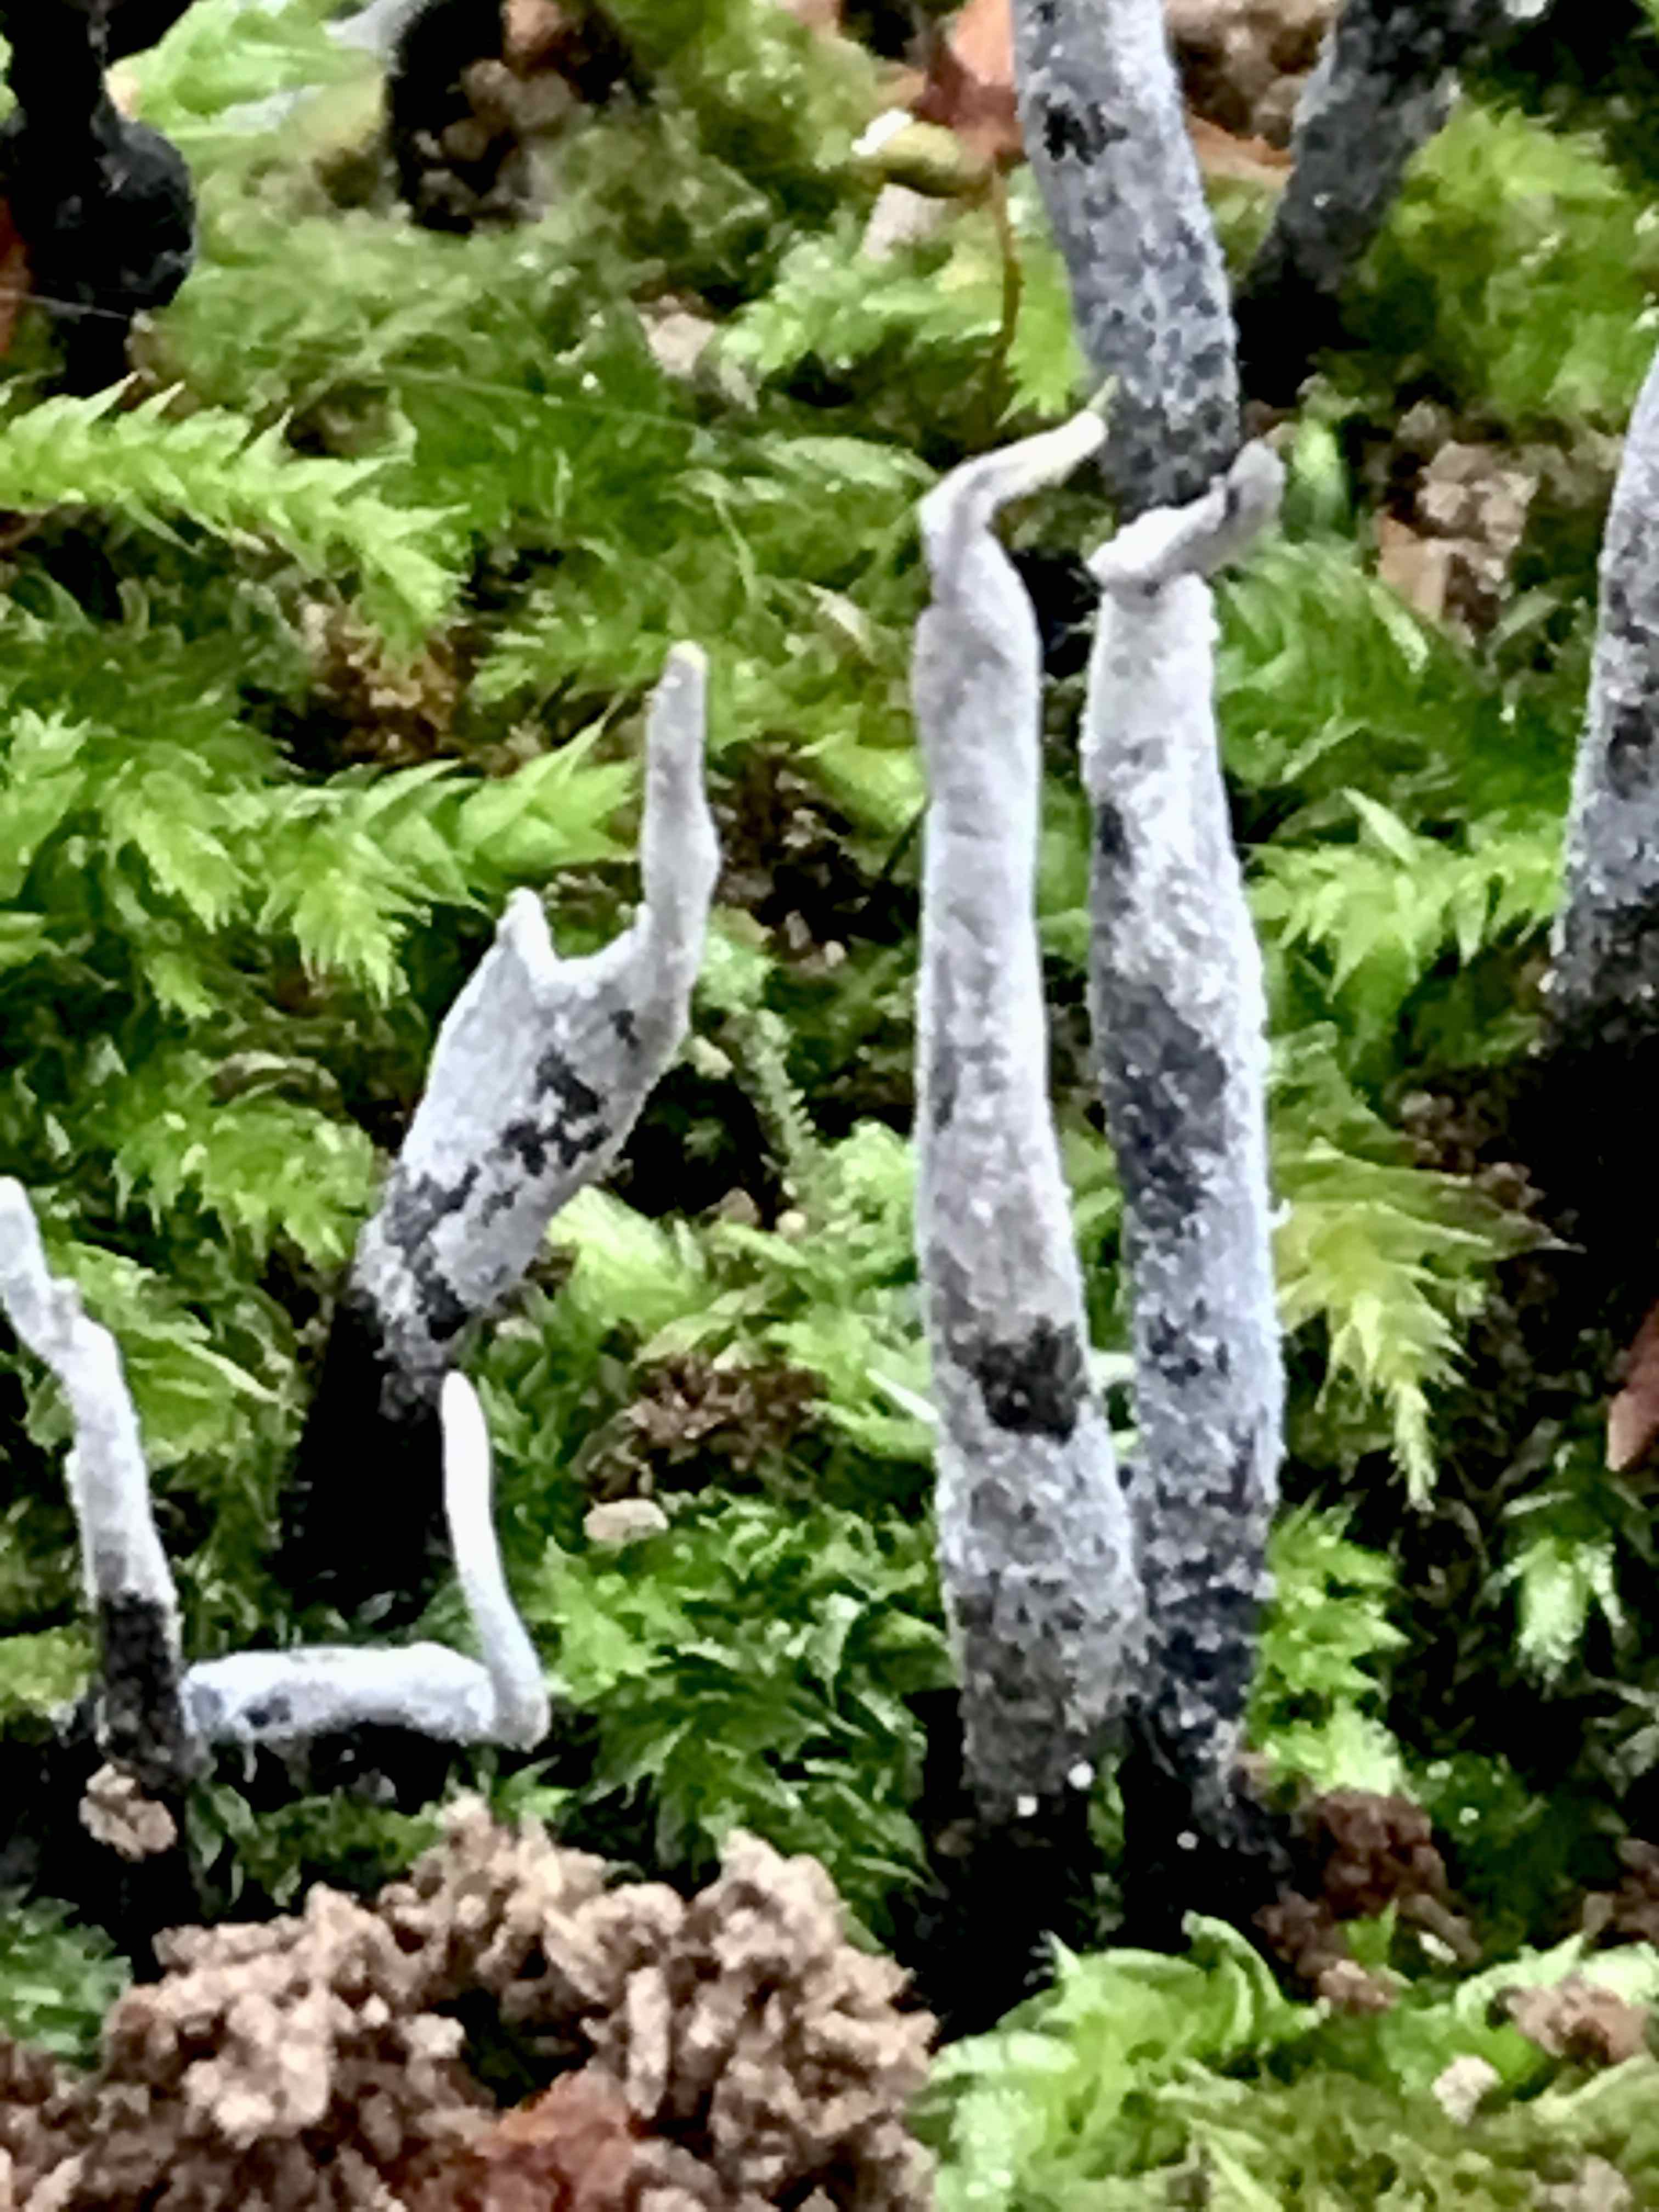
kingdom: Fungi
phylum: Ascomycota
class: Sordariomycetes
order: Xylariales
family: Xylariaceae
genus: Xylaria
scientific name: Xylaria hypoxylon
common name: grenet stødsvamp
